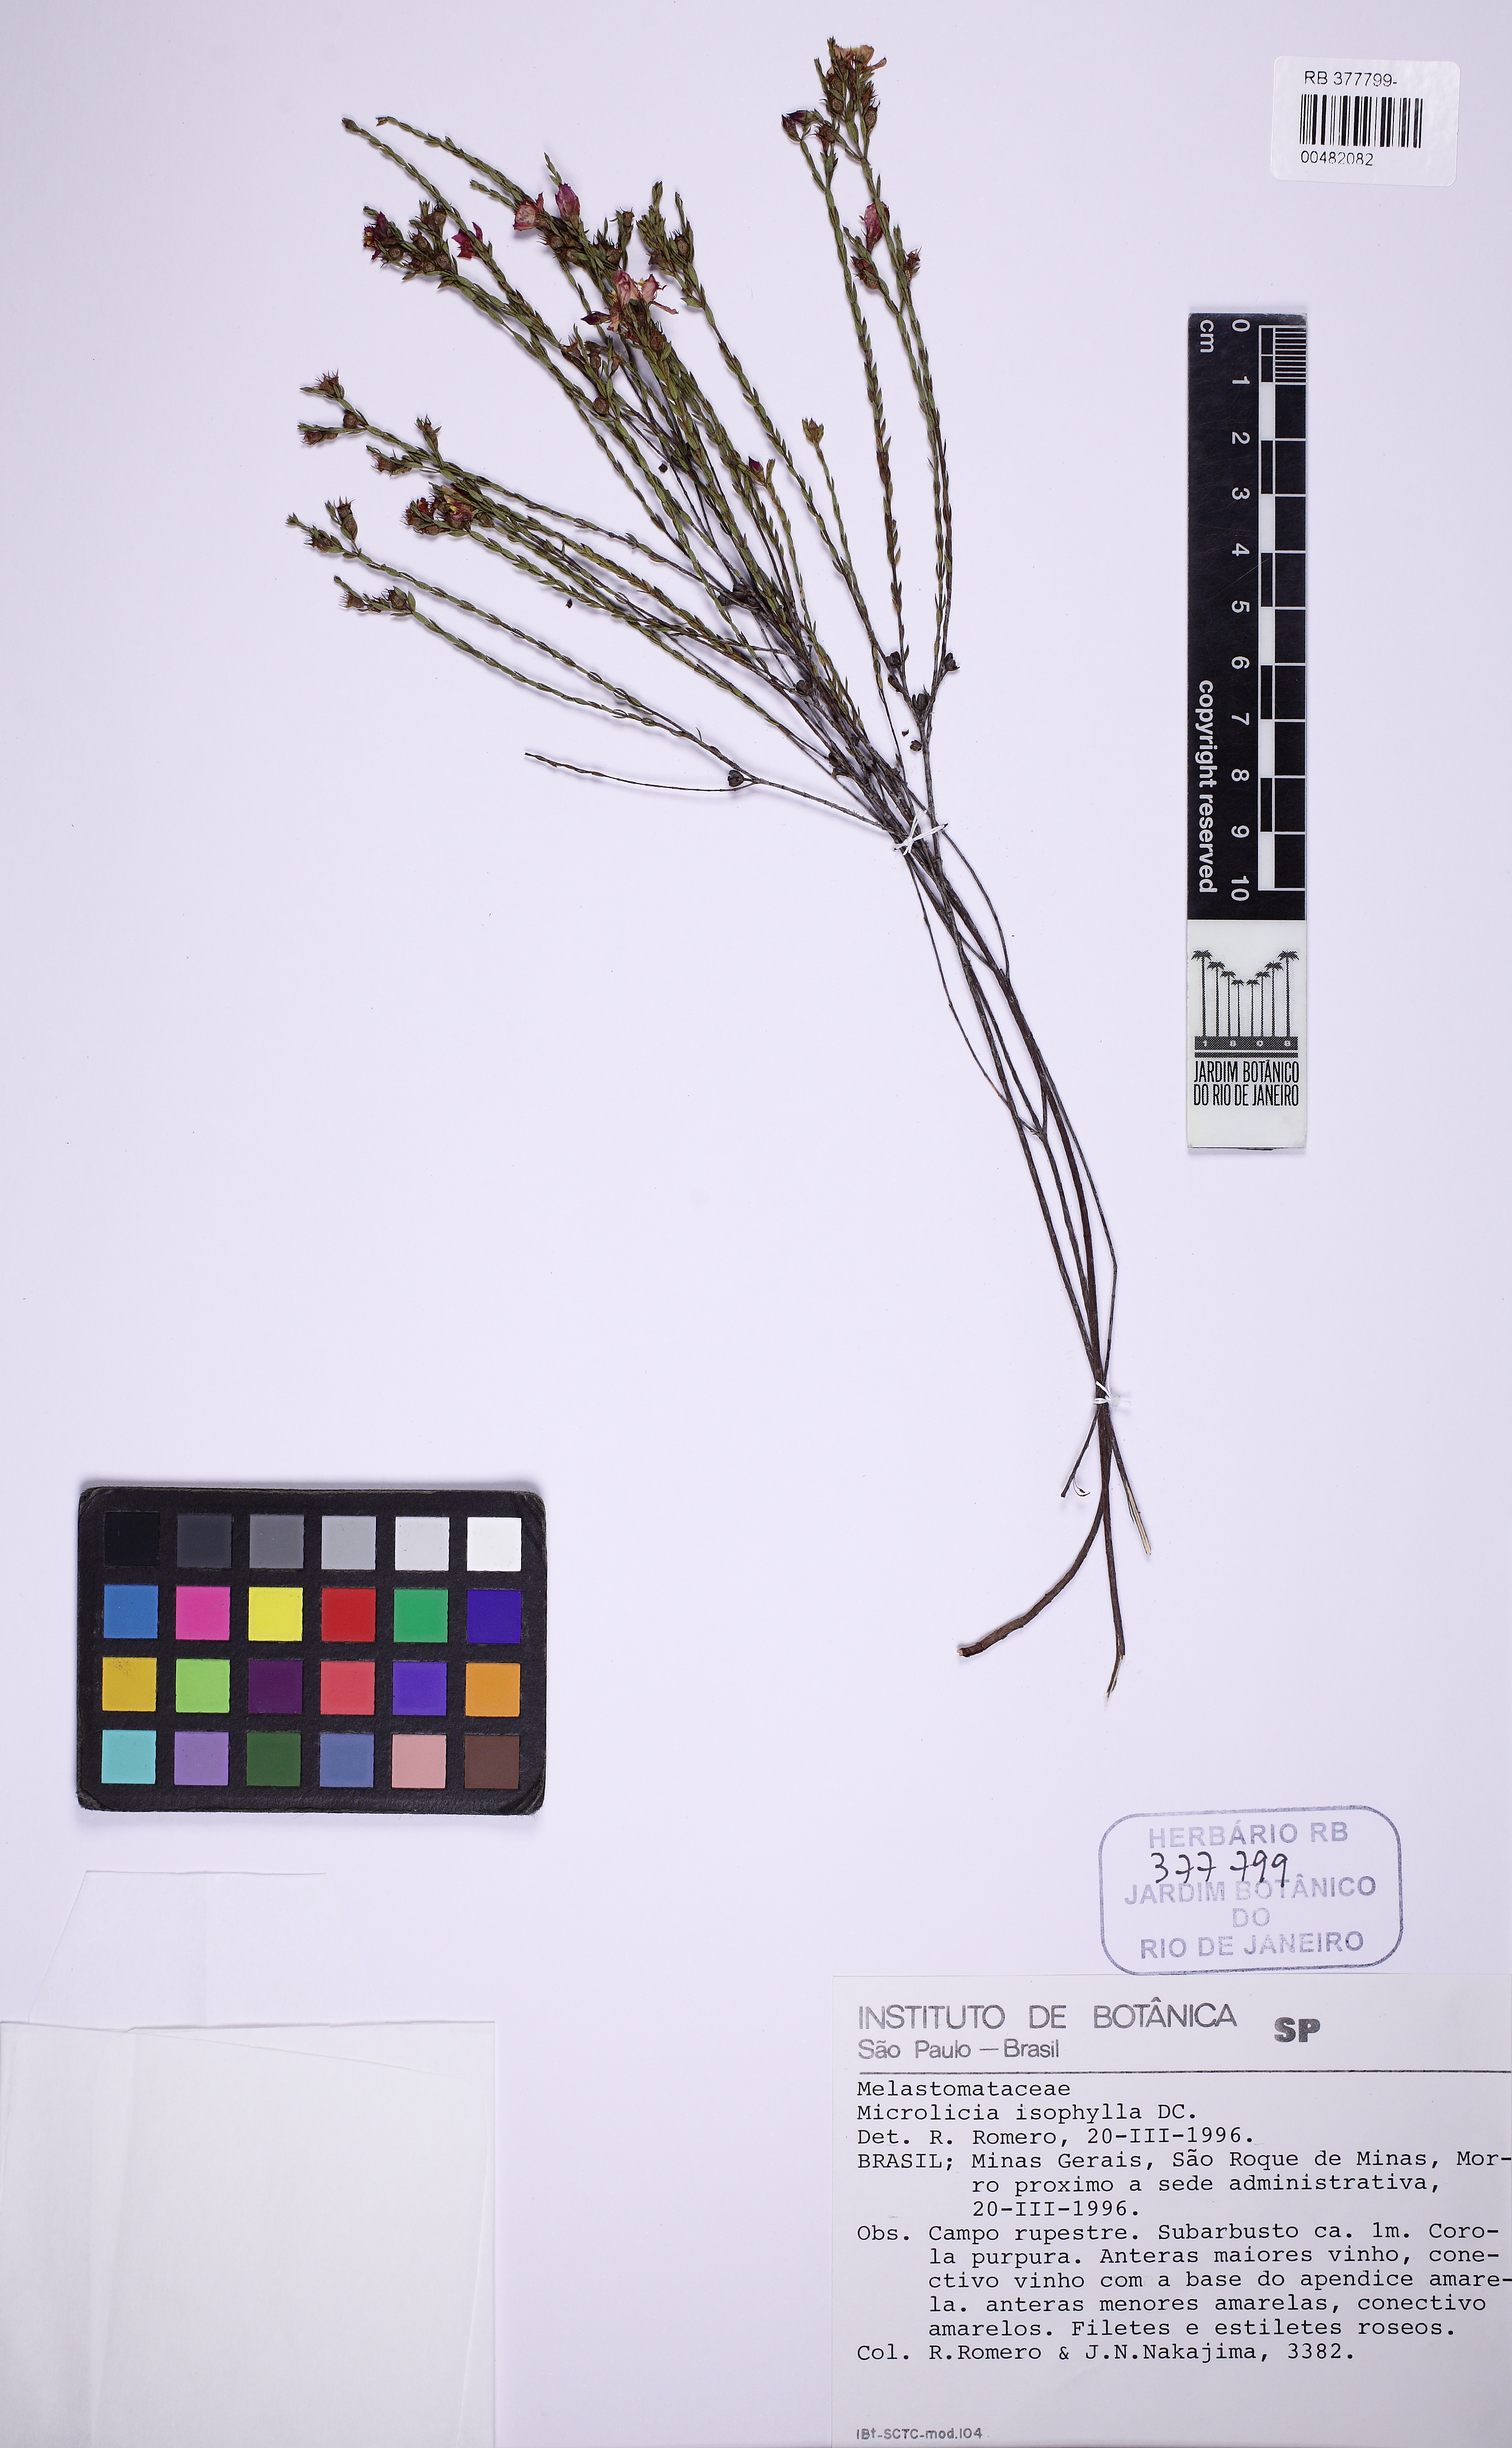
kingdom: Plantae
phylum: Tracheophyta
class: Magnoliopsida
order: Myrtales
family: Melastomataceae
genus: Microlicia
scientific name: Microlicia isophylla
